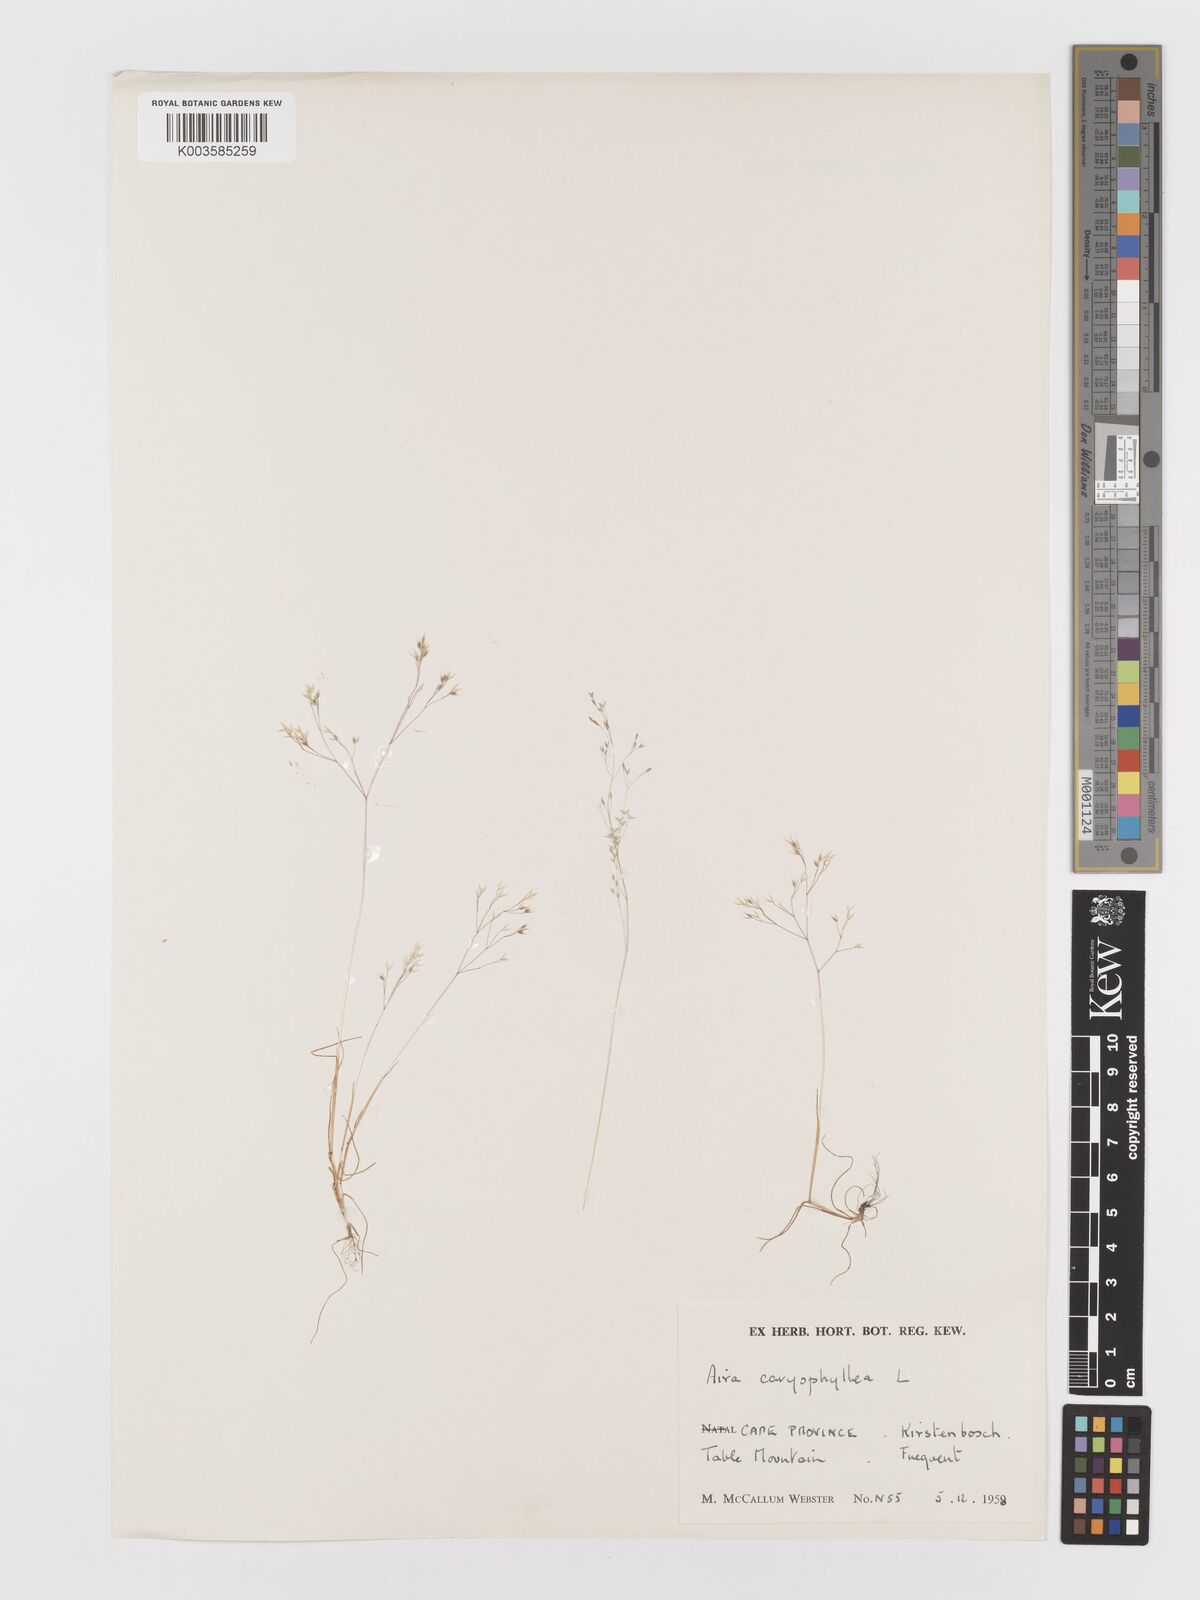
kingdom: Plantae
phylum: Tracheophyta
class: Liliopsida
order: Poales
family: Poaceae
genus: Aira
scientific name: Aira caryophyllea
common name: Silver hairgrass
